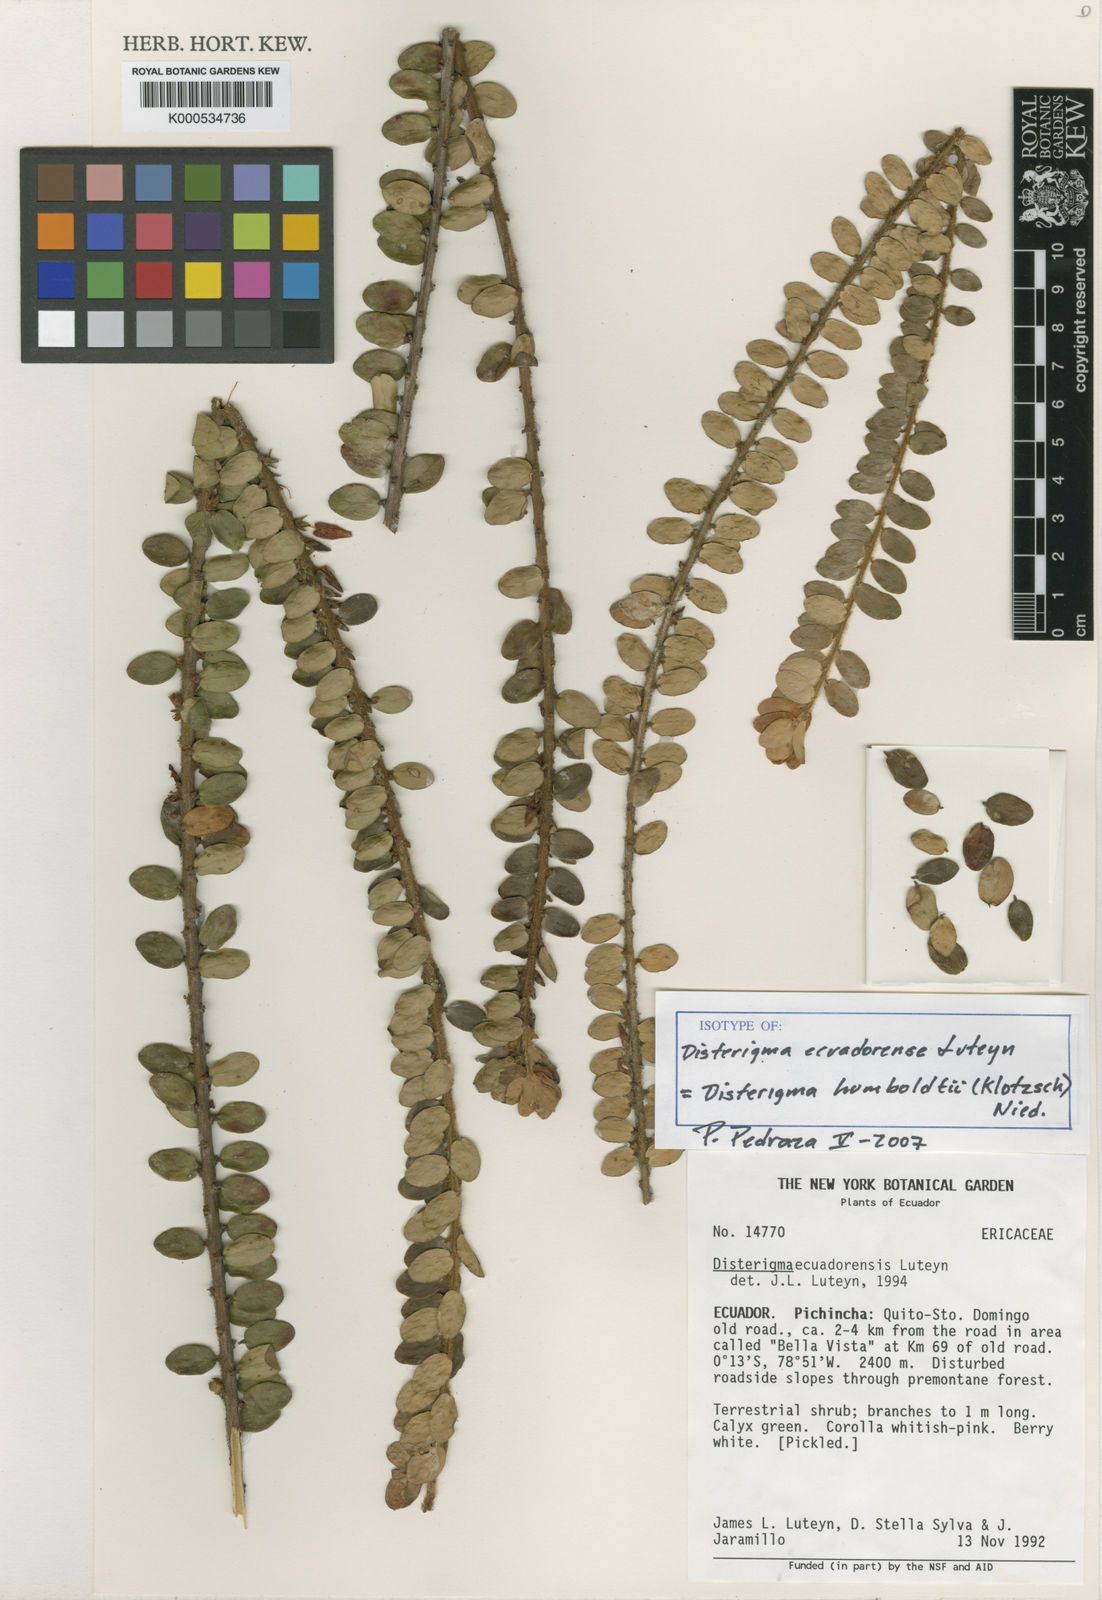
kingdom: Plantae
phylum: Tracheophyta
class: Magnoliopsida
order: Ericales
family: Ericaceae
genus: Disterigma
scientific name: Disterigma humboldtii
